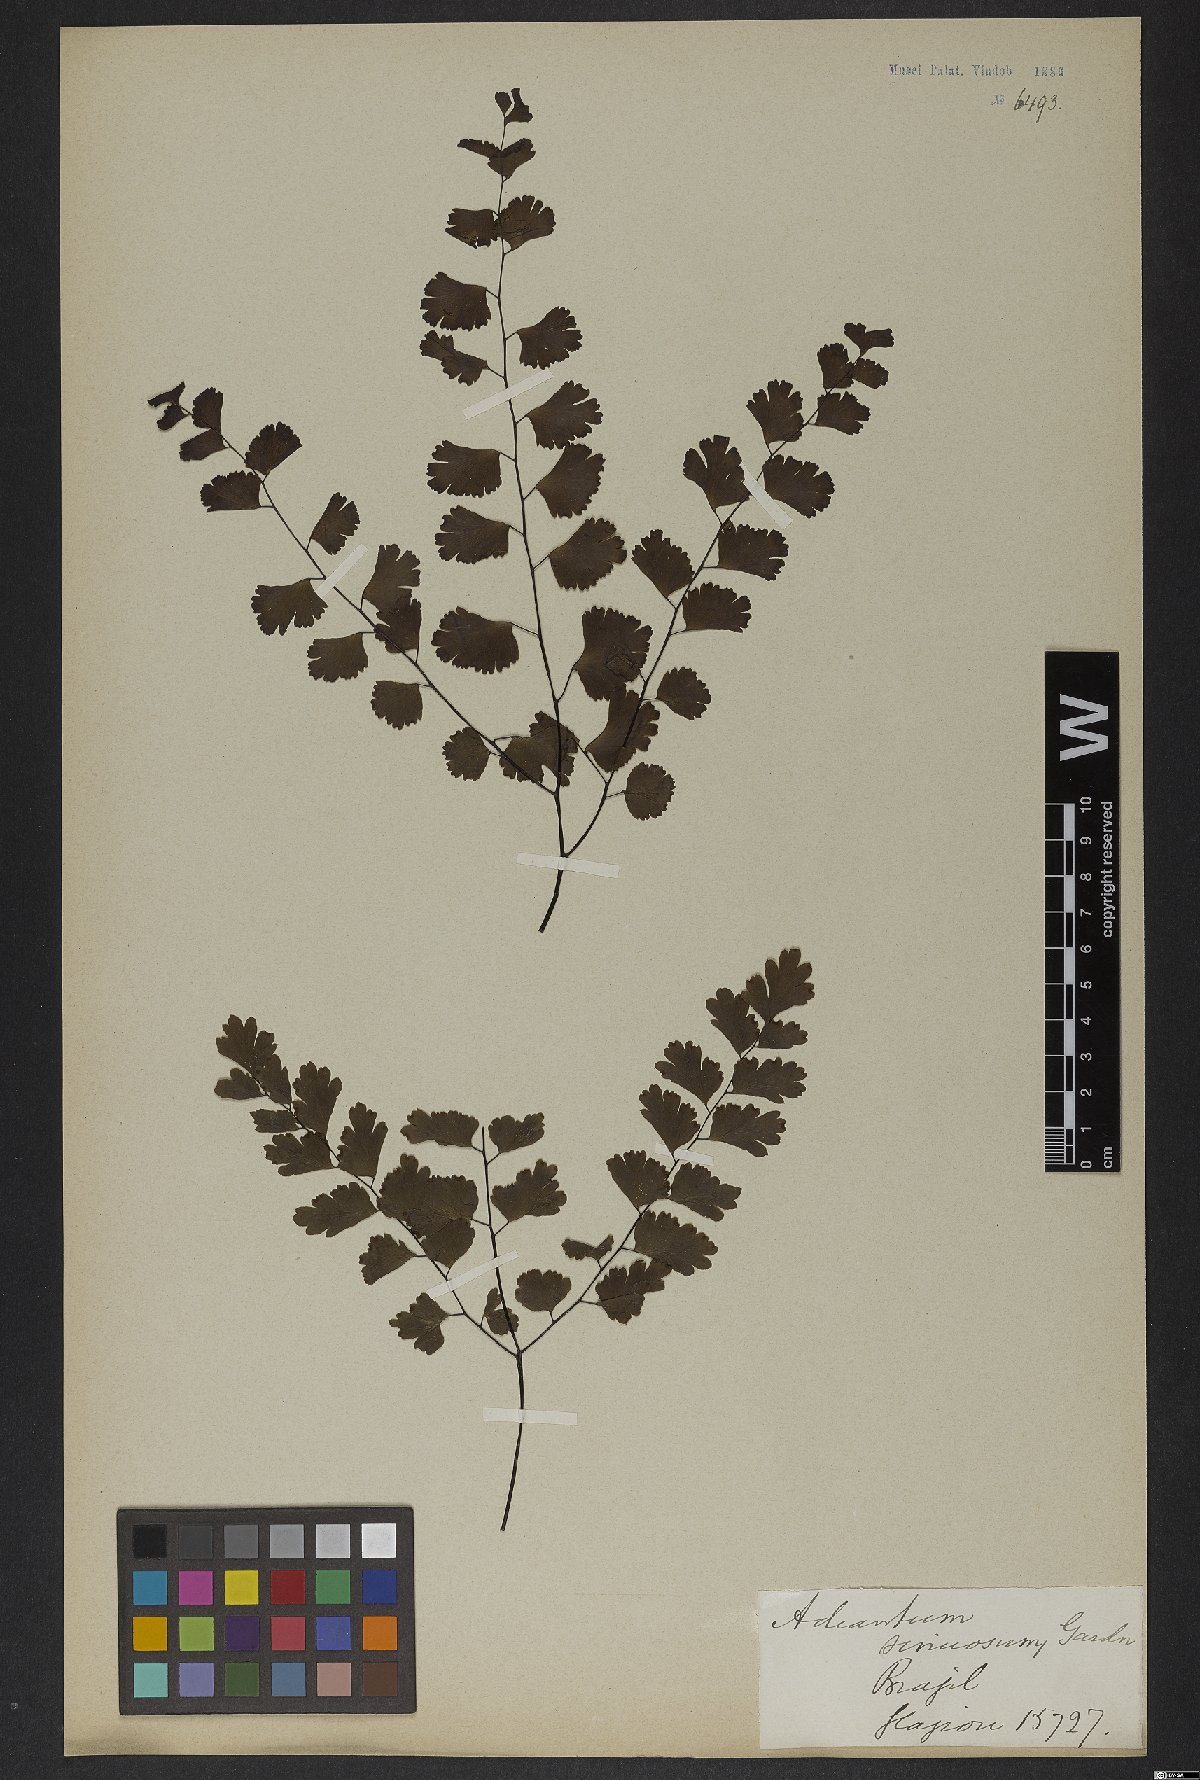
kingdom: Plantae
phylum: Tracheophyta
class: Polypodiopsida
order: Polypodiales
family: Pteridaceae
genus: Adiantum
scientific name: Adiantum sinuosum
